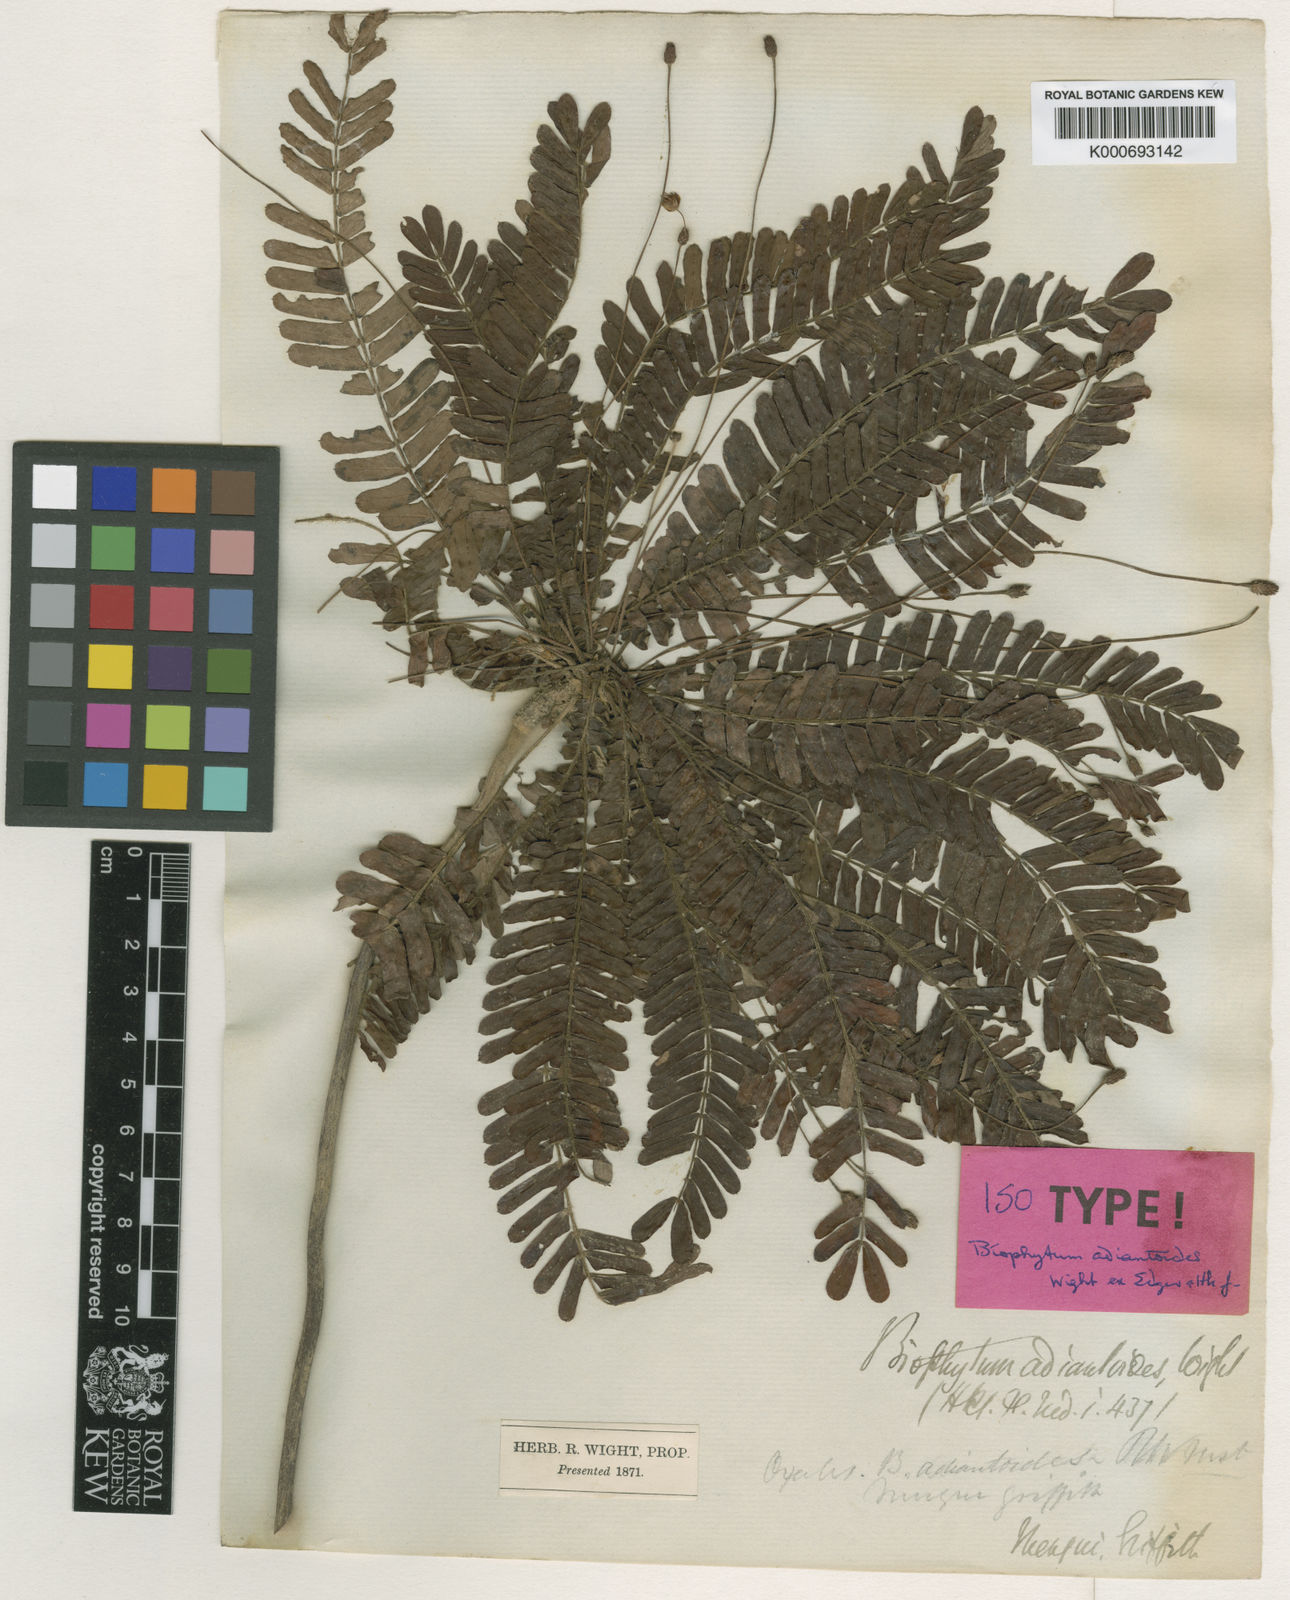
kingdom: Plantae
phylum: Tracheophyta
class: Magnoliopsida
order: Oxalidales
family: Oxalidaceae
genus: Biophytum
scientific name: Biophytum adiantoides
